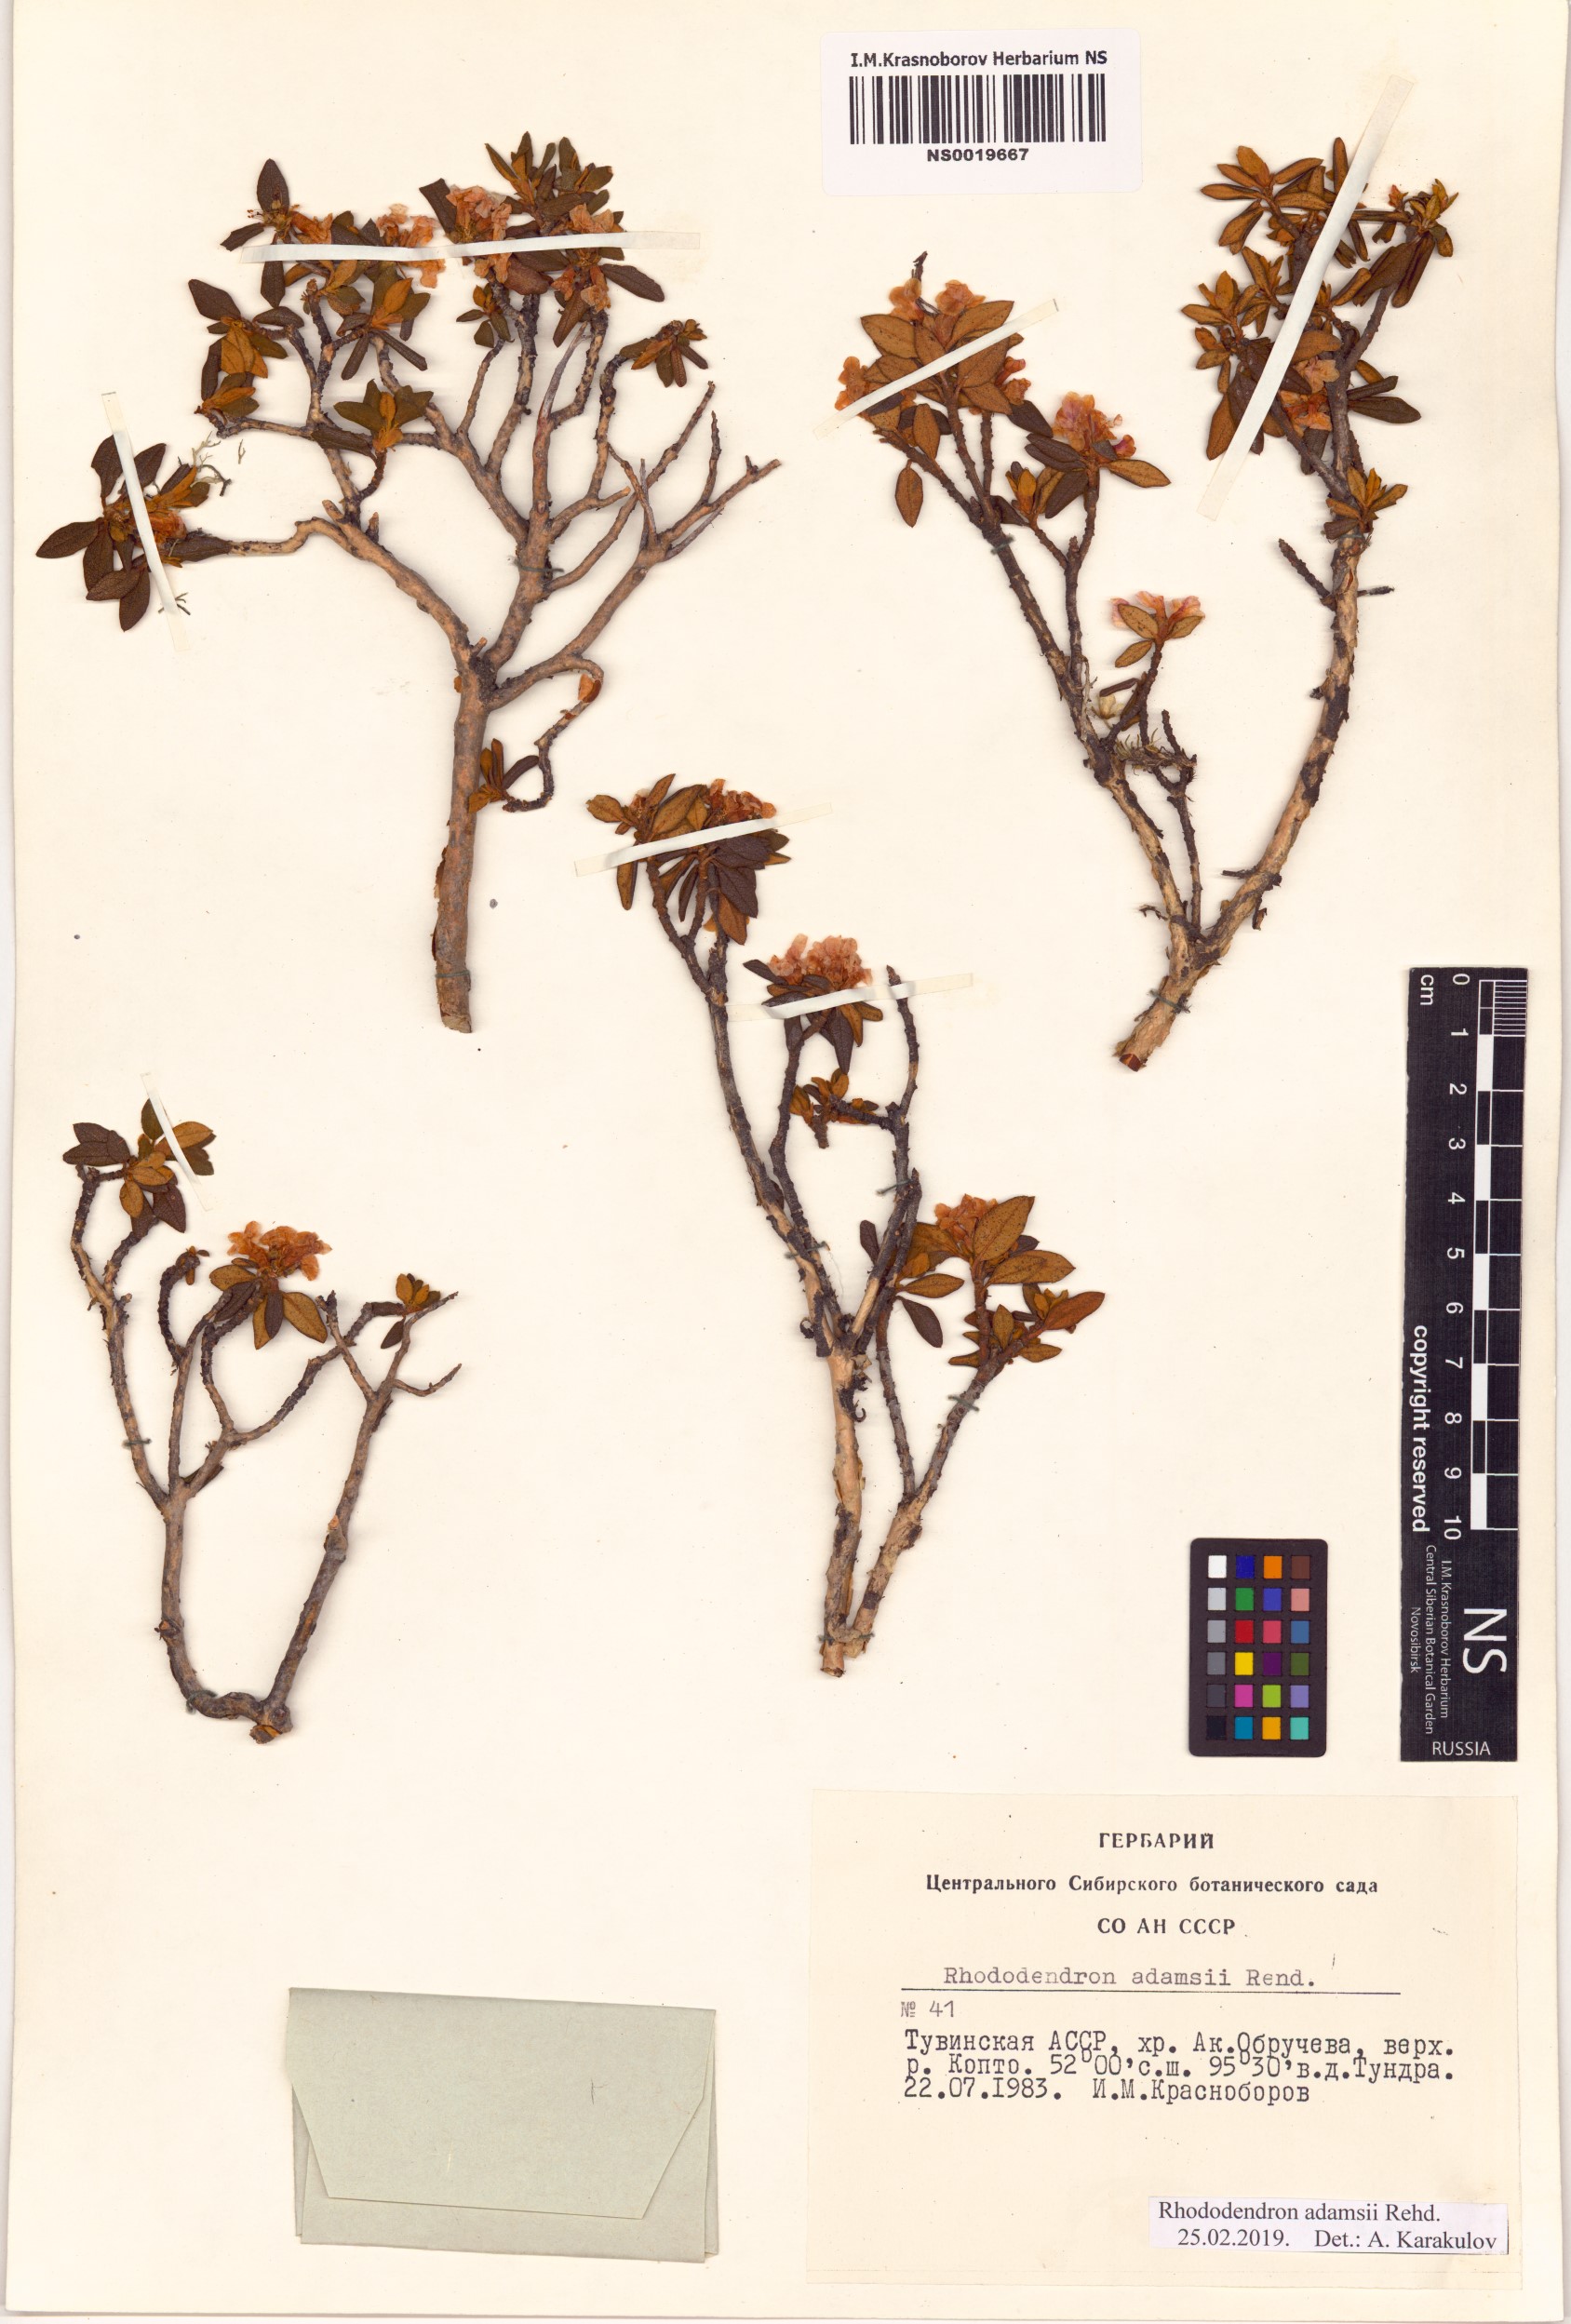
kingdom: Plantae
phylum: Tracheophyta
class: Magnoliopsida
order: Ericales
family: Ericaceae
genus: Rhododendron
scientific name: Rhododendron adamsii
